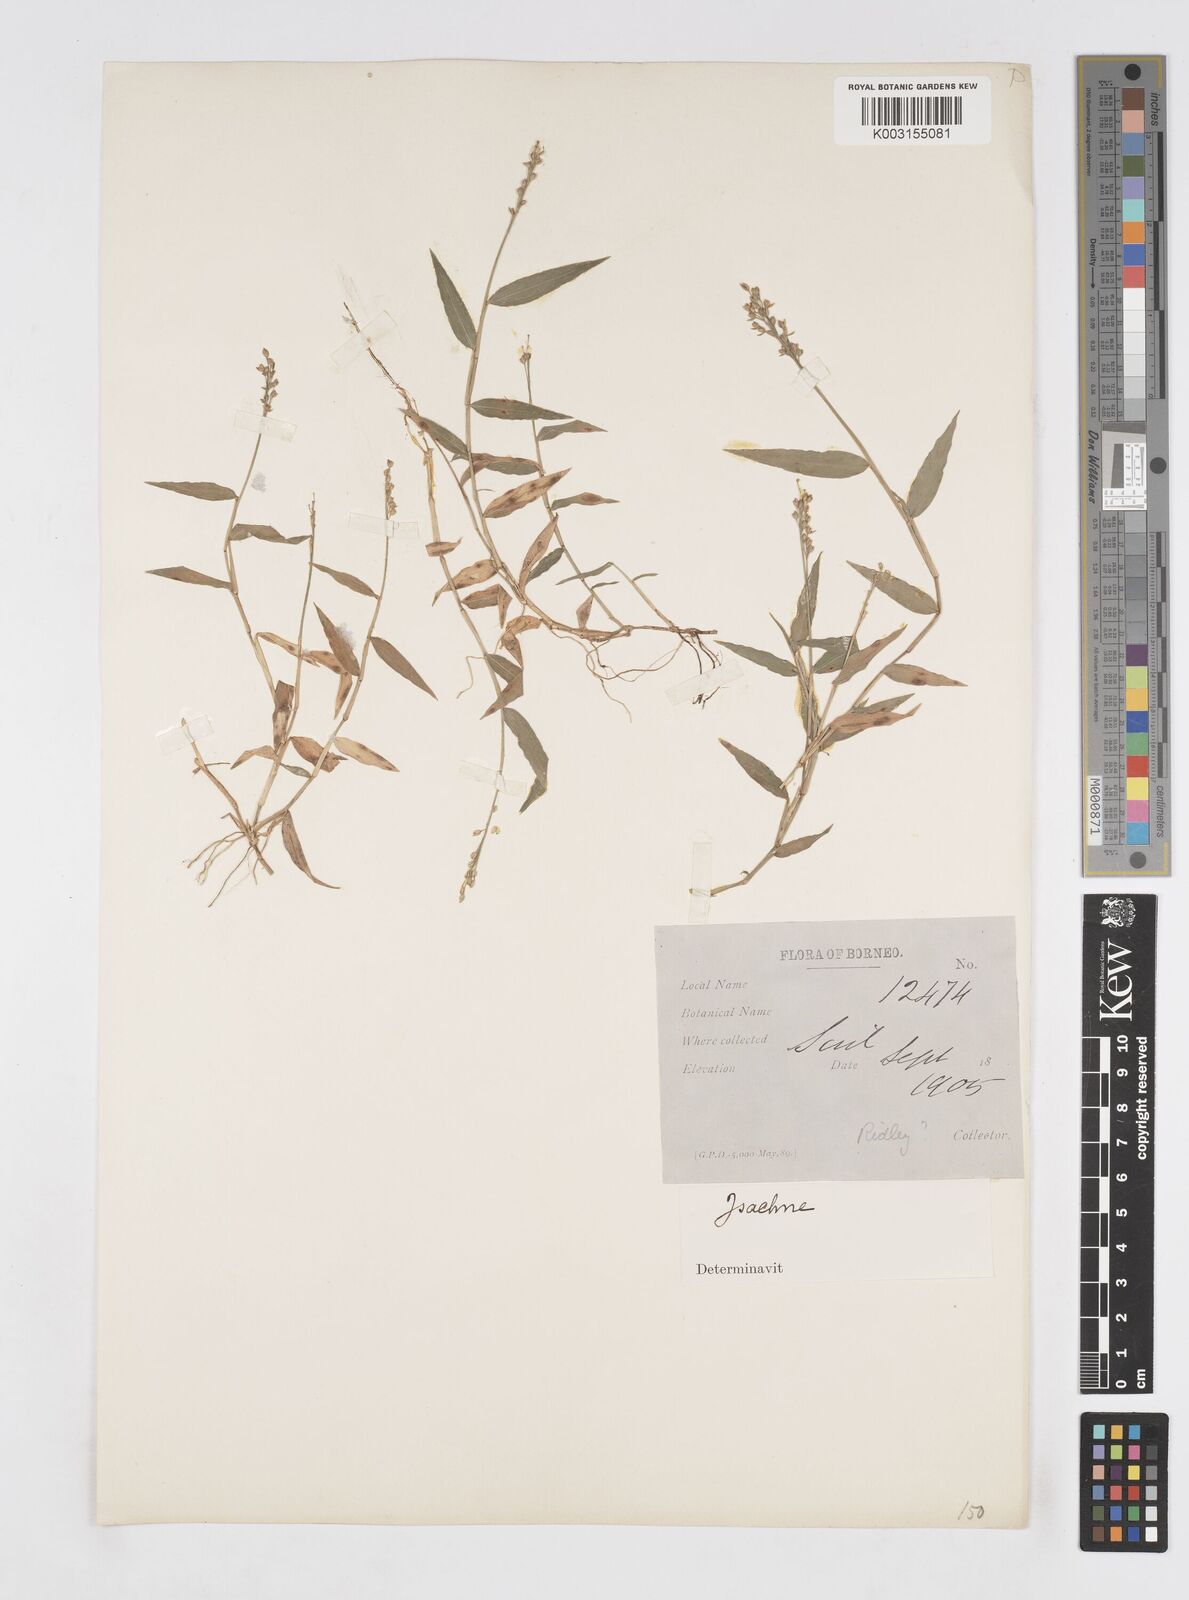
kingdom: Plantae
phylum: Tracheophyta
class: Liliopsida
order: Poales
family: Poaceae
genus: Isachne
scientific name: Isachne schmidtii
